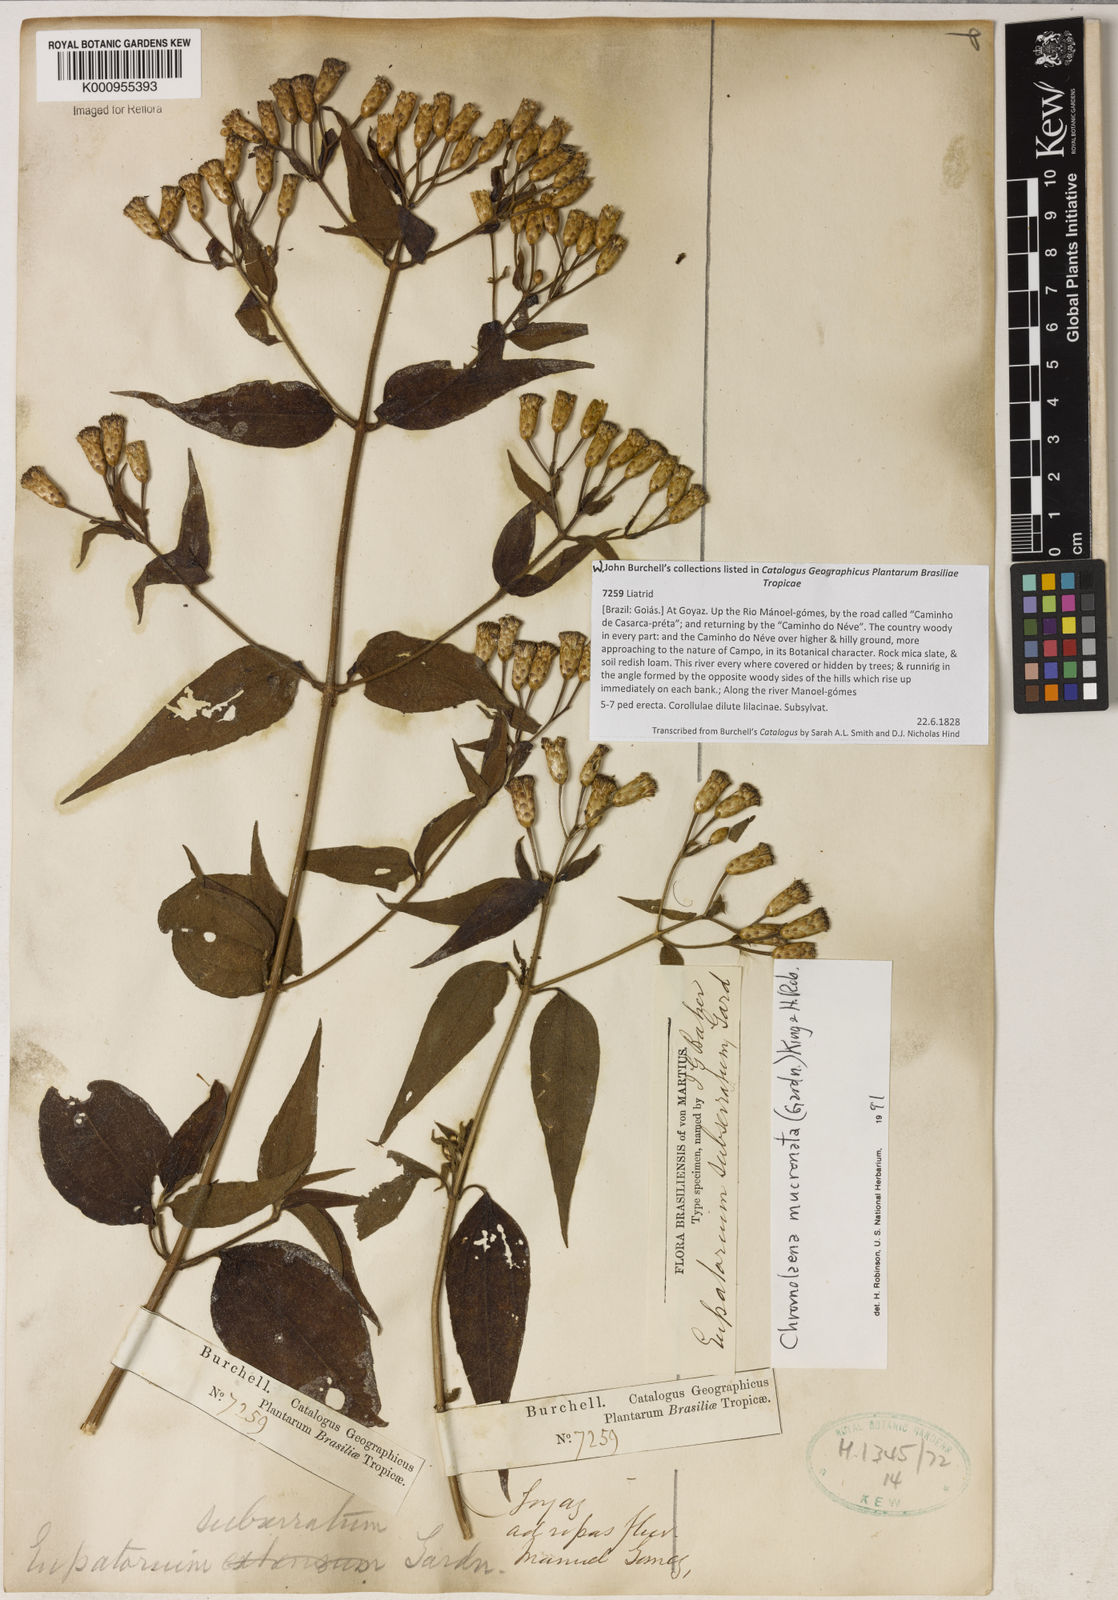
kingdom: Plantae
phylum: Tracheophyta
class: Magnoliopsida
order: Asterales
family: Asteraceae
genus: Chromolaena
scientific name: Chromolaena mucronata
